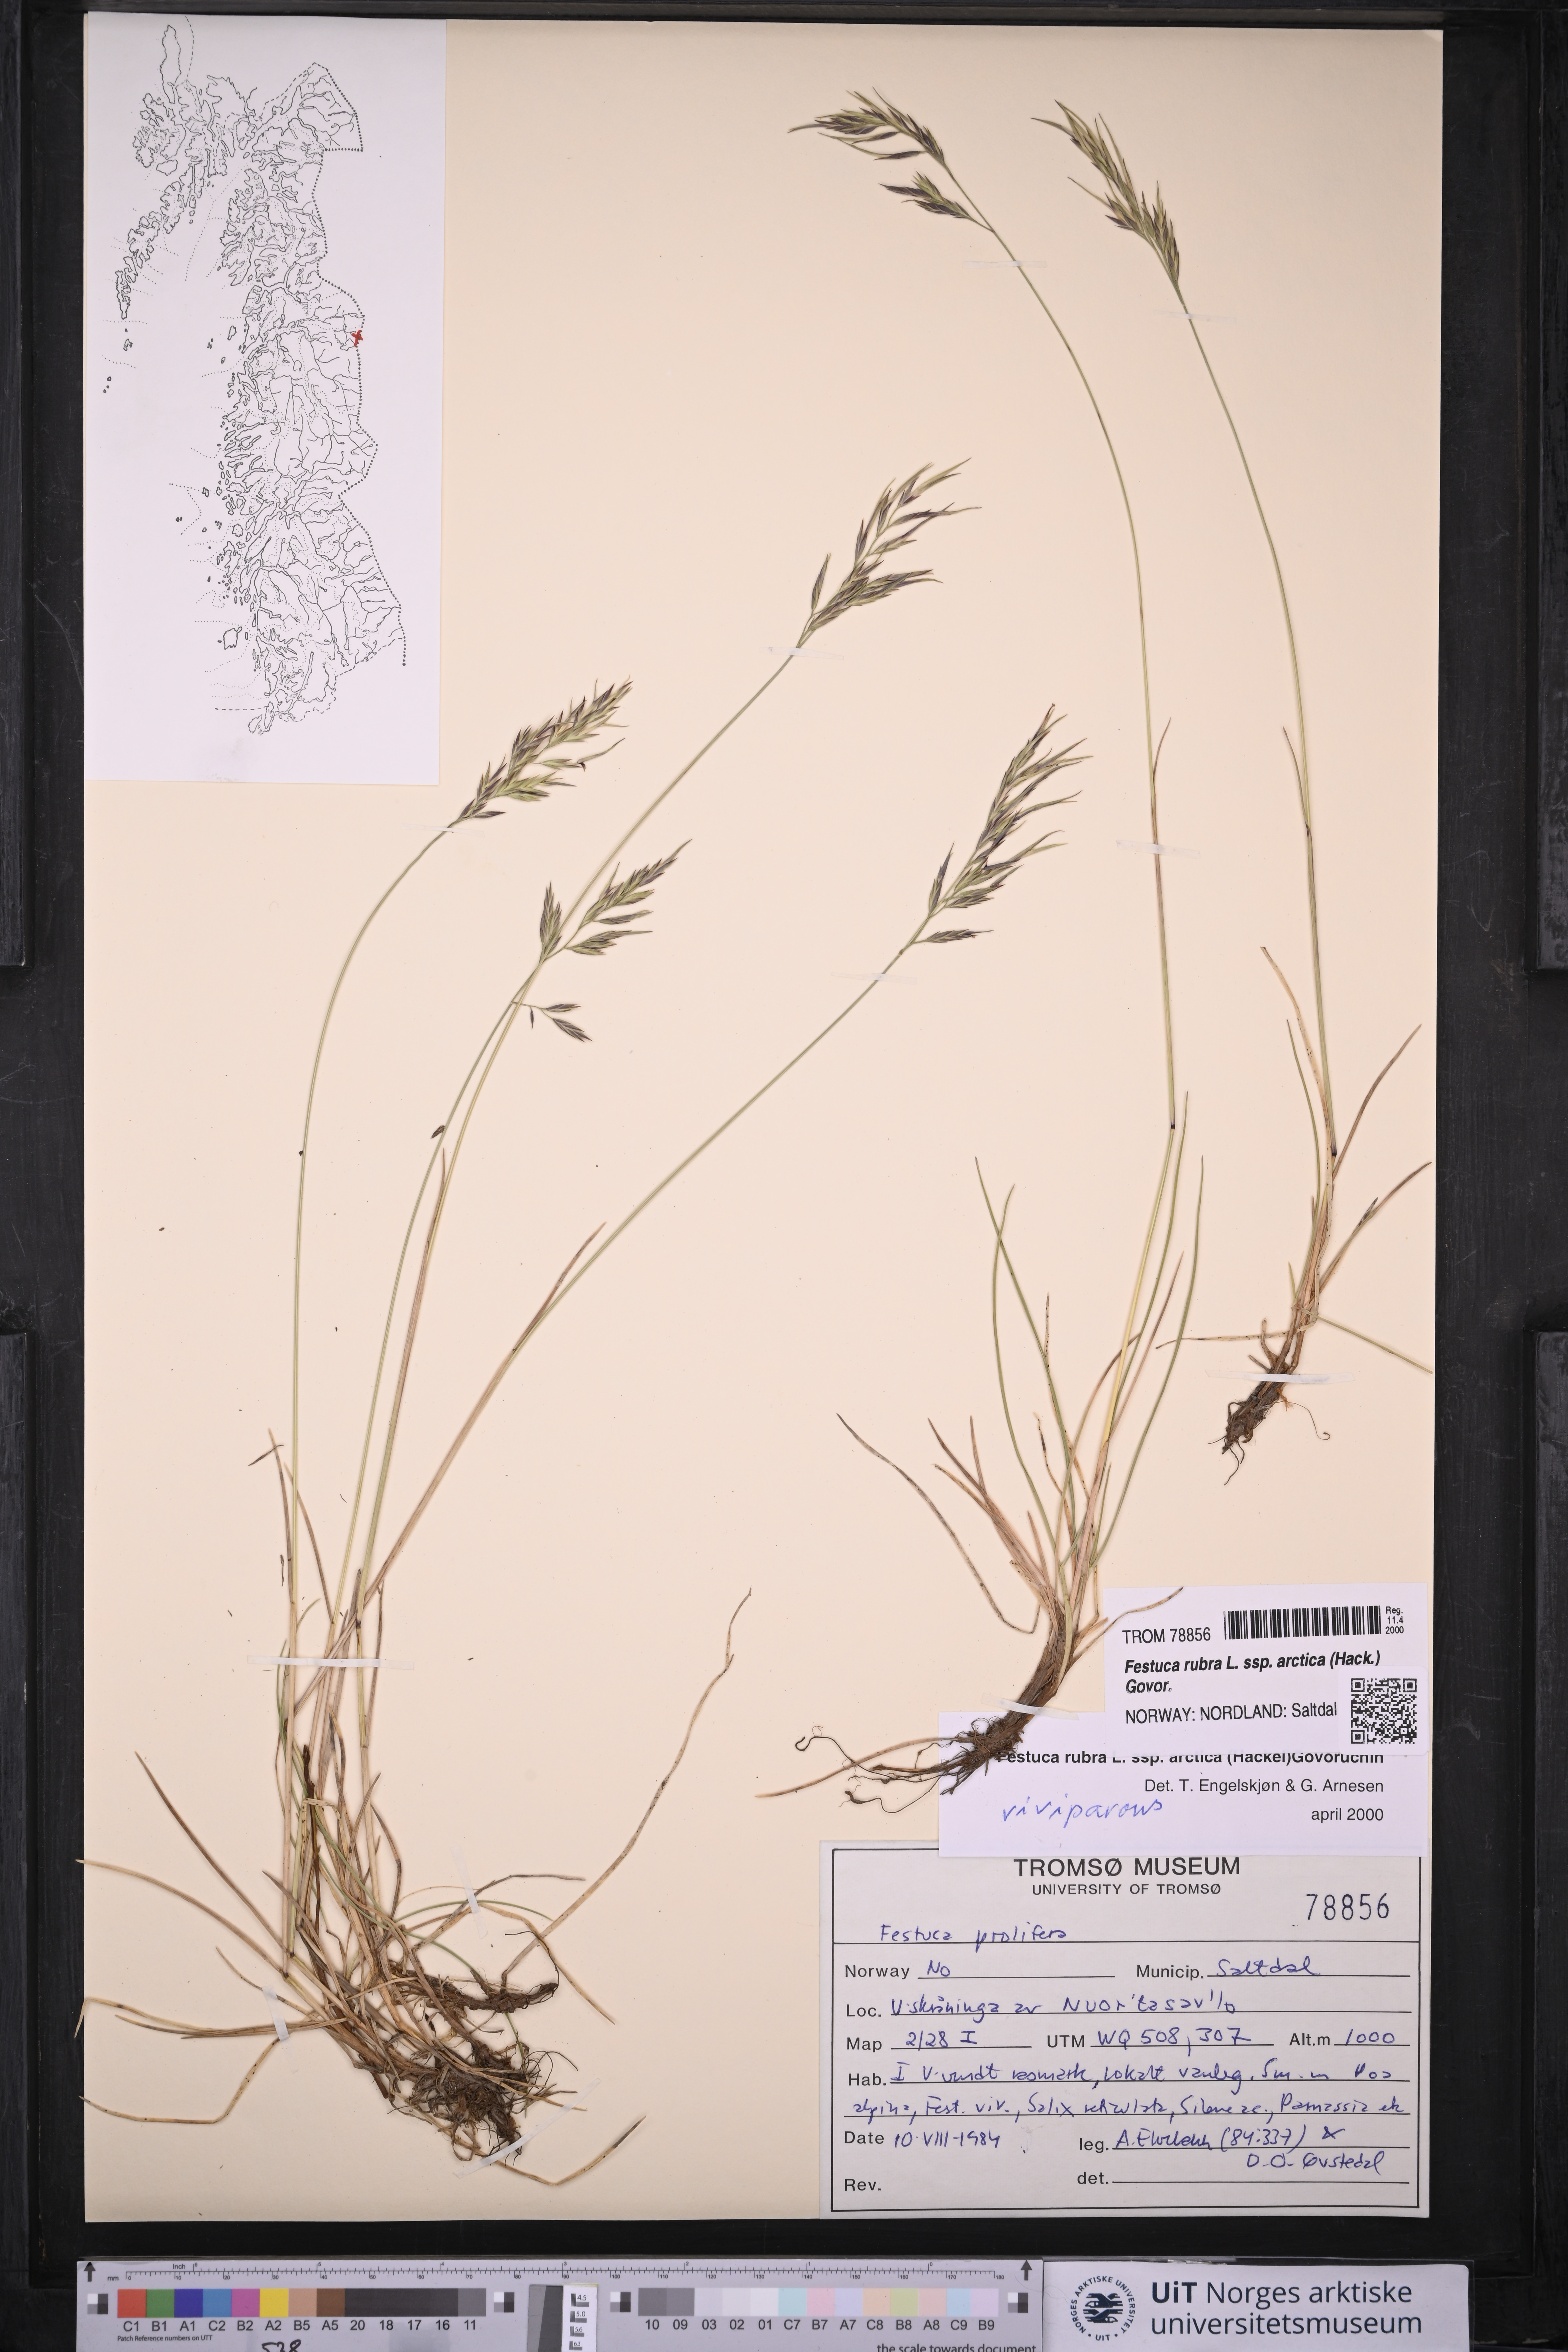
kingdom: Plantae
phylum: Tracheophyta
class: Liliopsida
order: Poales
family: Poaceae
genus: Festuca
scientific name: Festuca richardsonii
